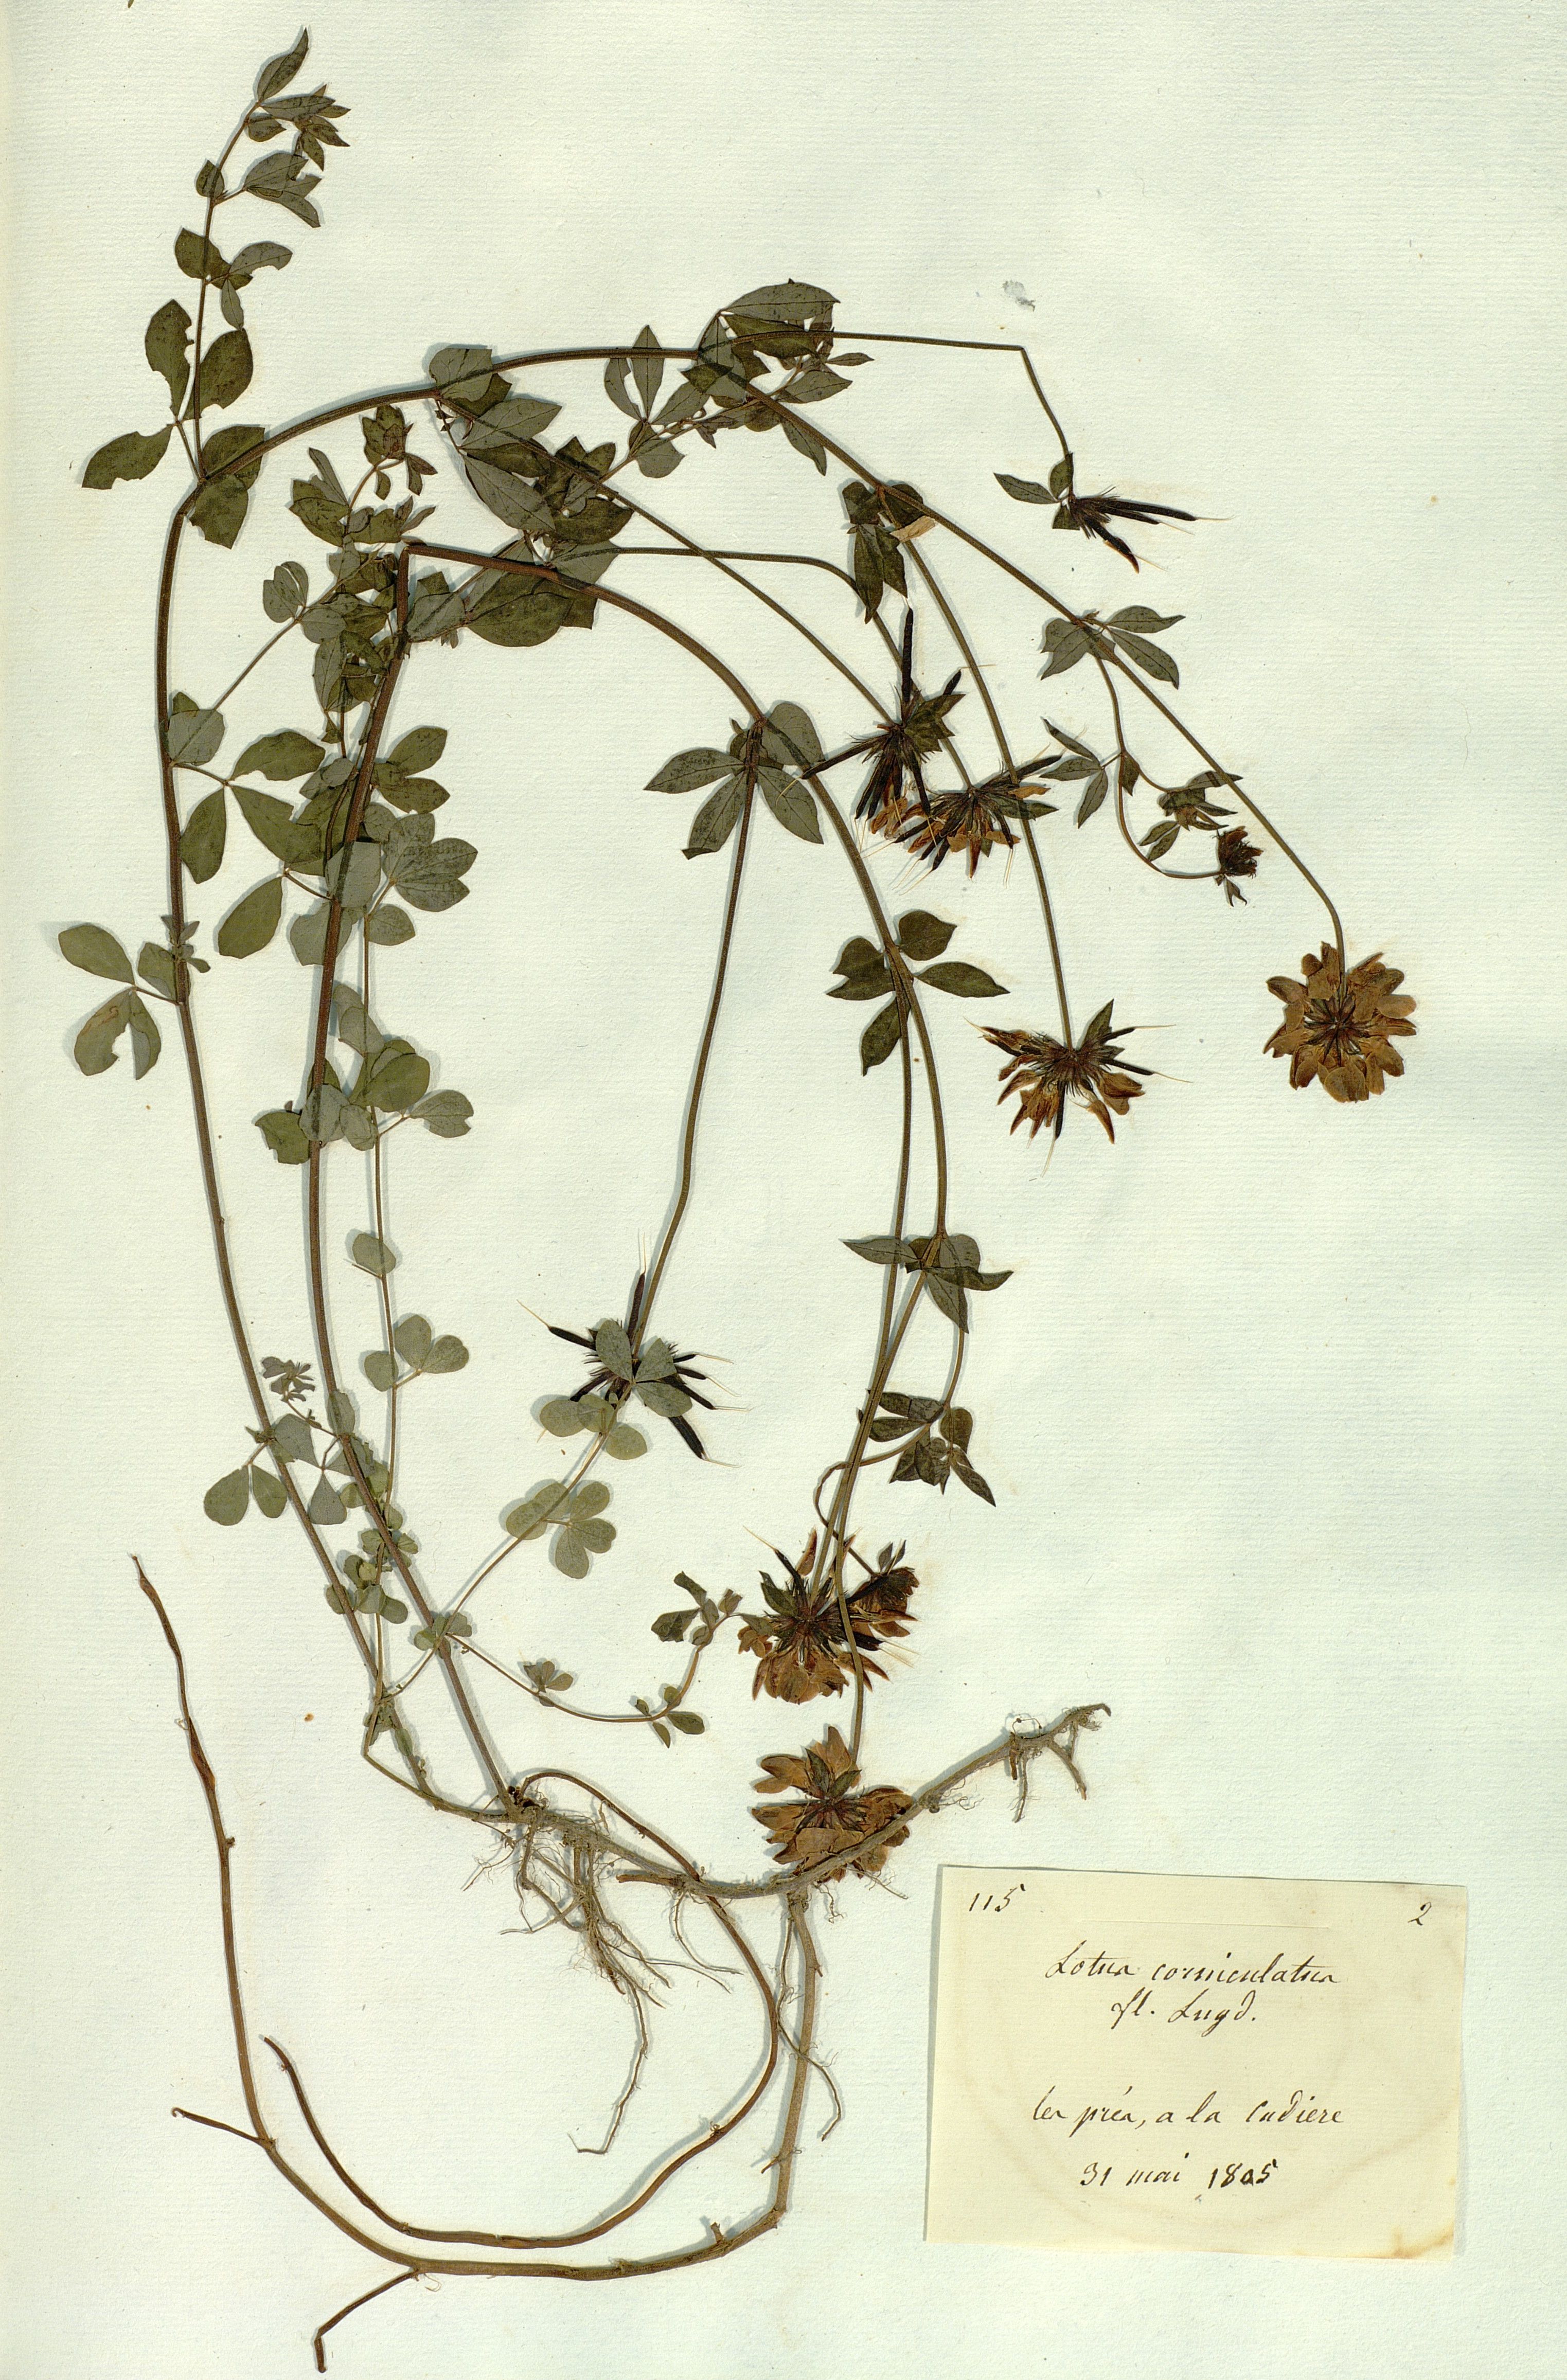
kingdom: Plantae
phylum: Tracheophyta
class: Magnoliopsida
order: Fabales
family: Fabaceae
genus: Lotus
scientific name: Lotus corniculatus
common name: Common bird's-foot-trefoil
